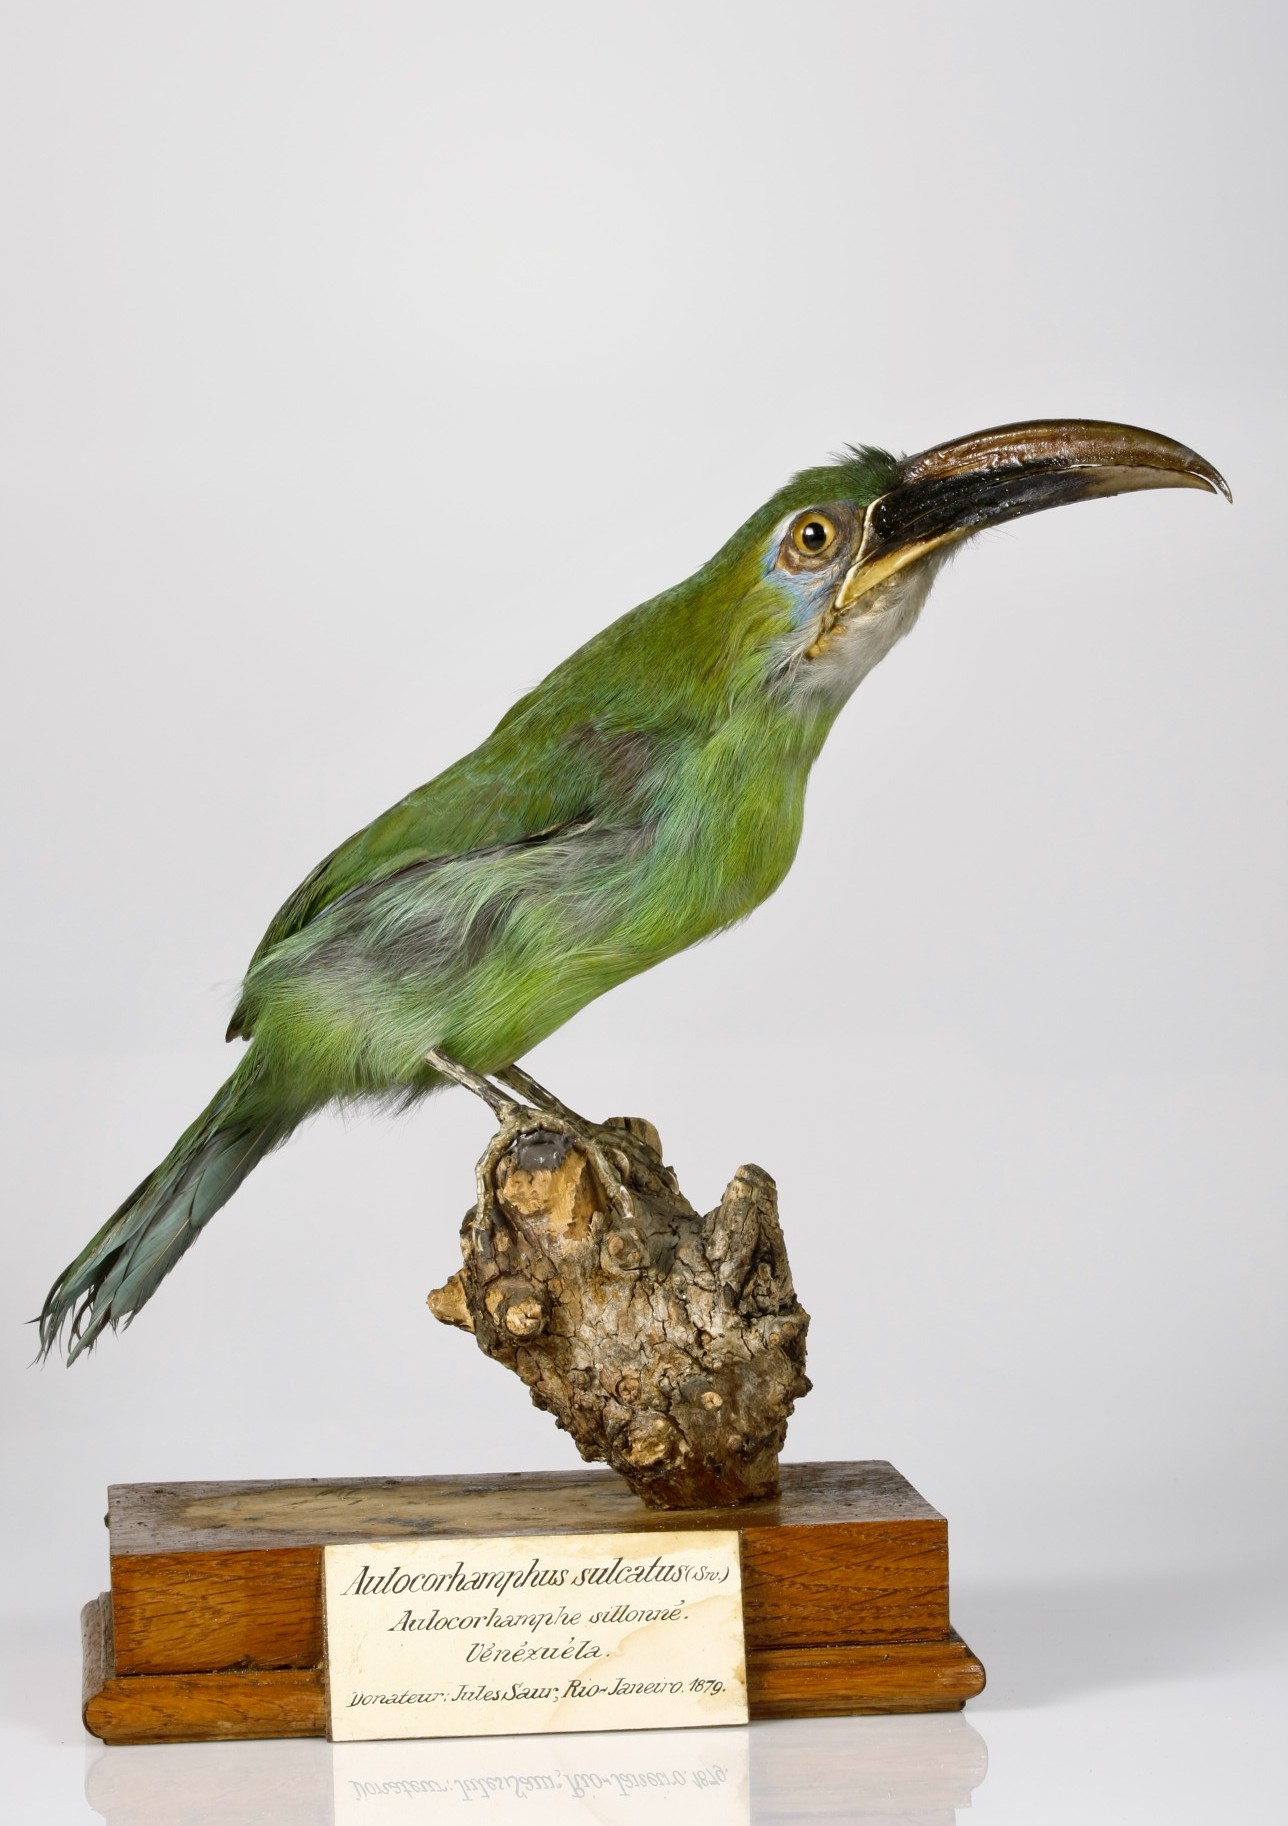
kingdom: Animalia
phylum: Chordata
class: Aves
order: Piciformes
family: Ramphastidae
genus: Aulacorhynchus
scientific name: Aulacorhynchus sulcatus
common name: Groove-billed toucanet
